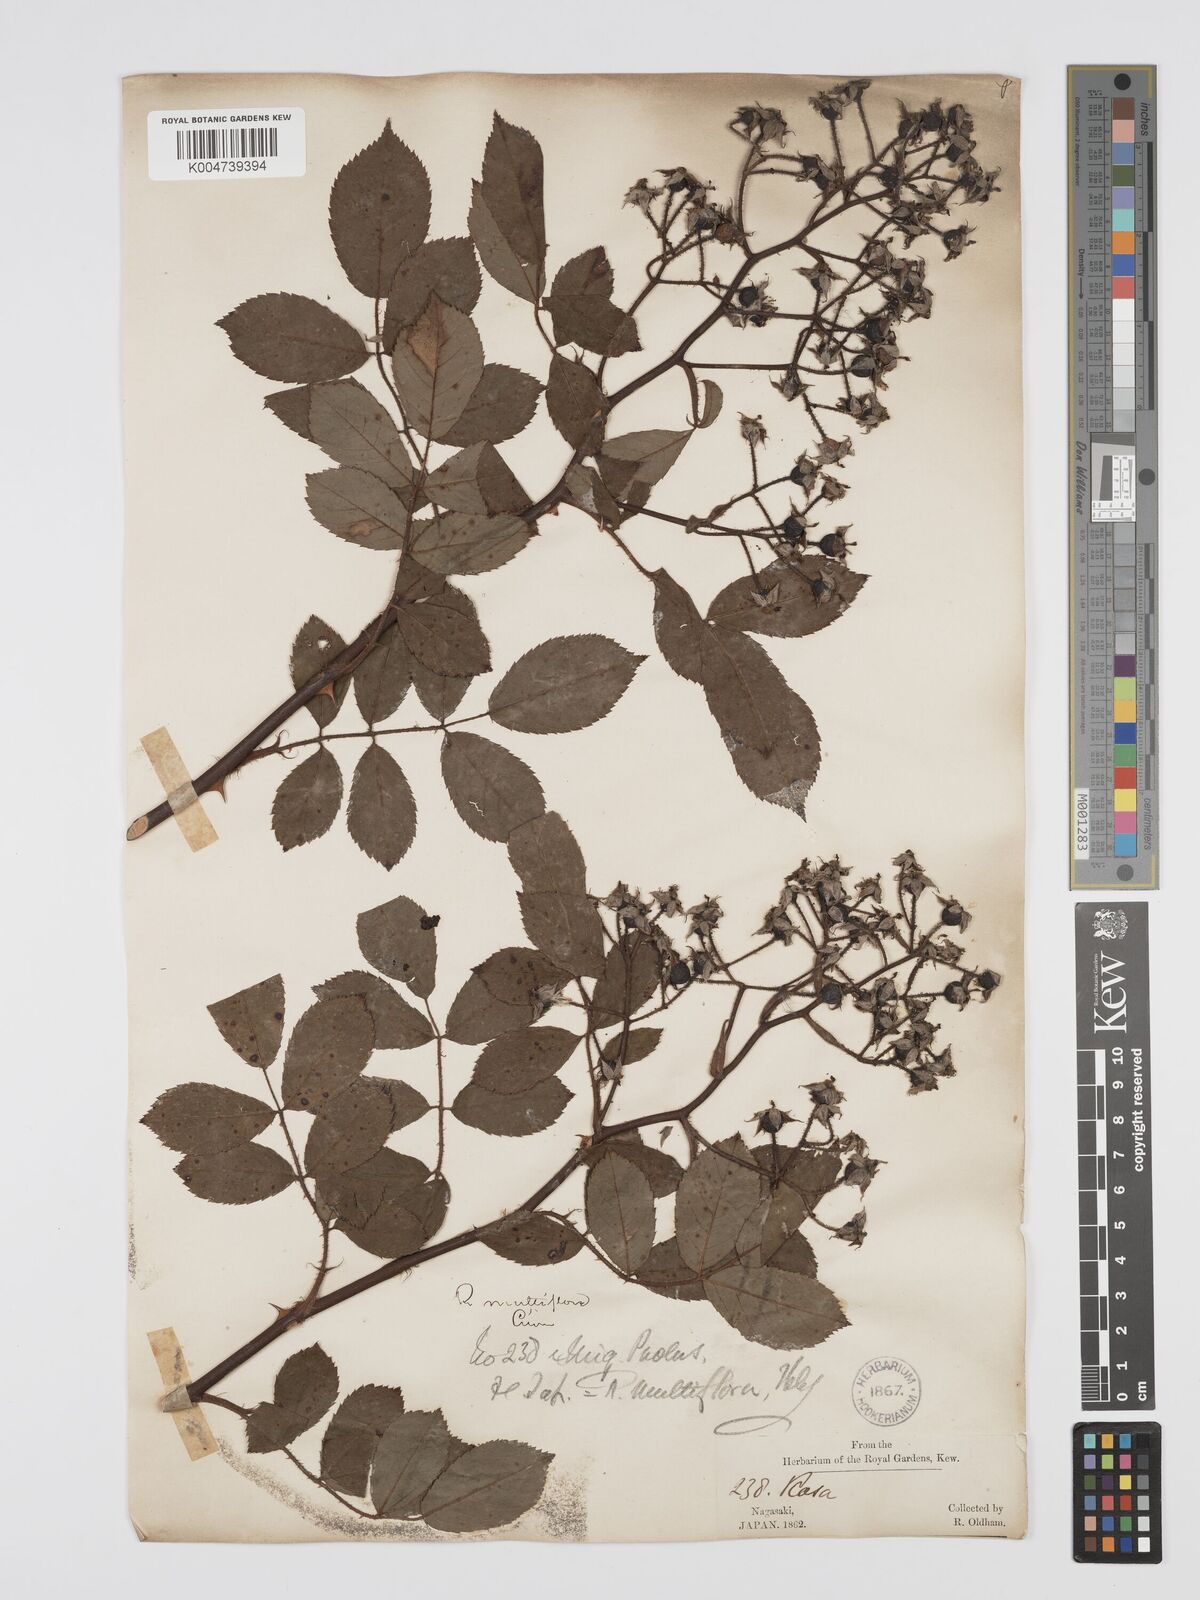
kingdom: Plantae
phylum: Tracheophyta
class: Magnoliopsida
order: Rosales
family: Rosaceae
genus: Rosa
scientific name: Rosa multiflora
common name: Multiflora rose
